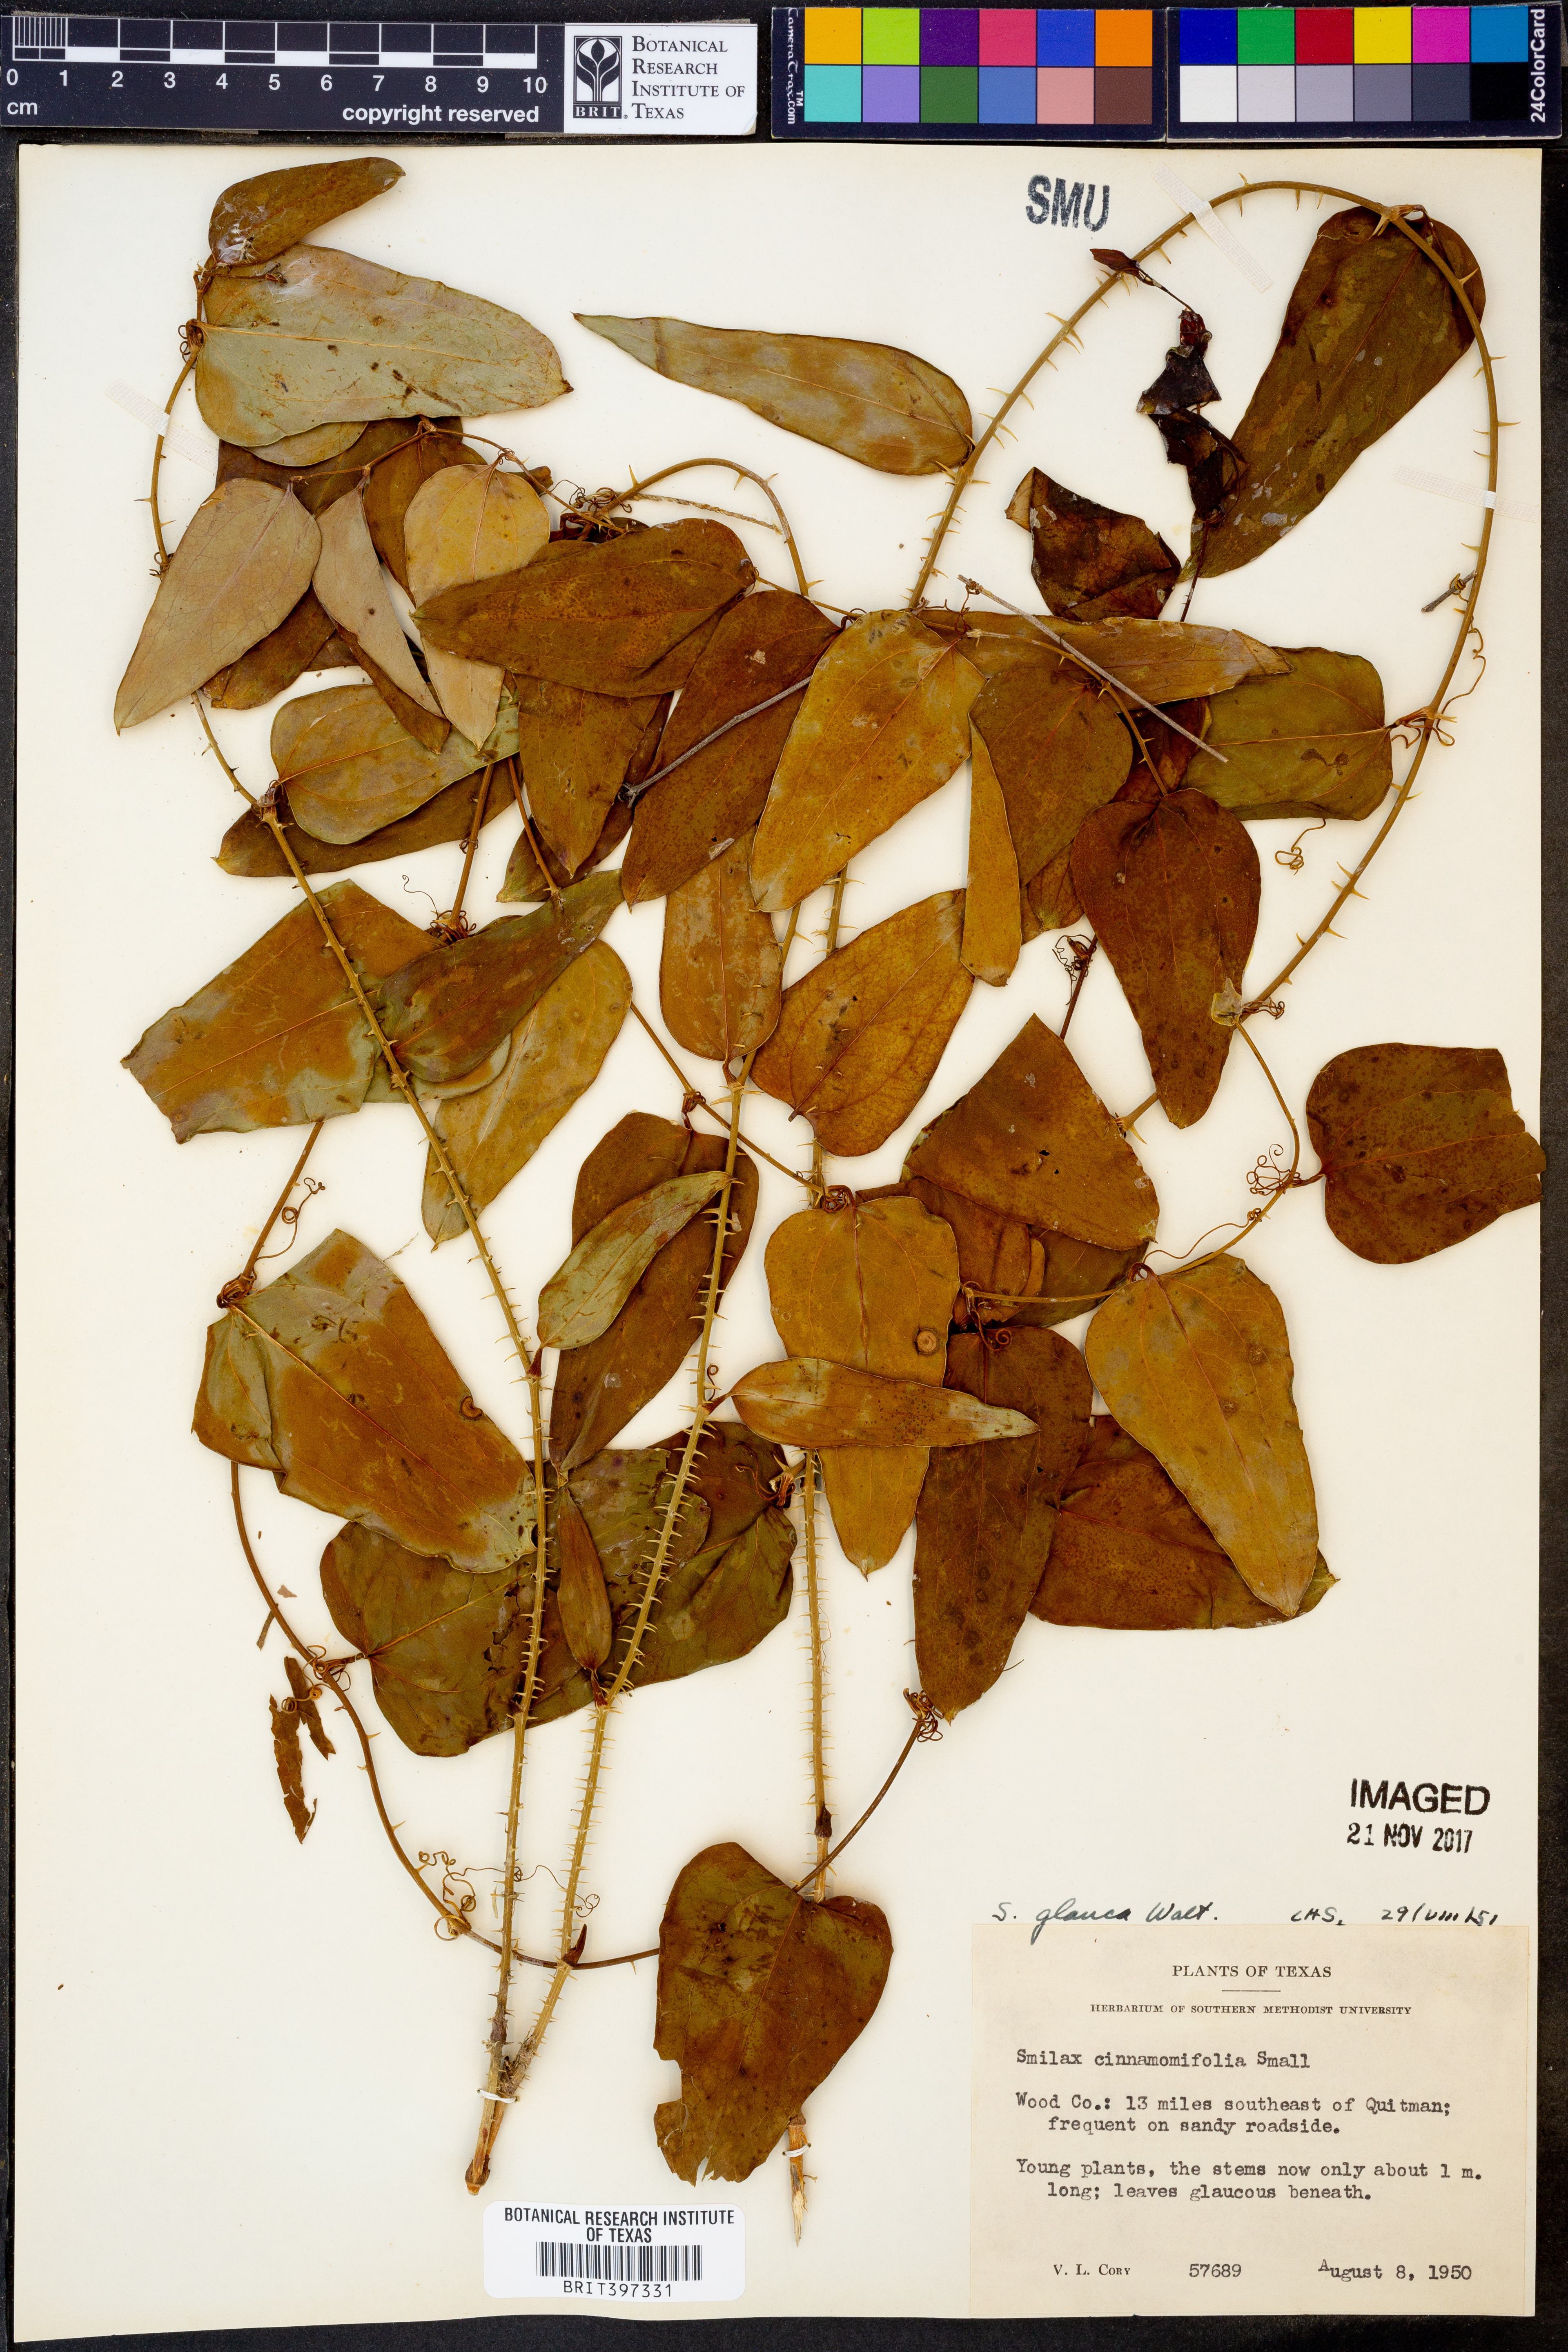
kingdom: Plantae
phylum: Tracheophyta
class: Liliopsida
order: Liliales
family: Smilacaceae
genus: Smilax
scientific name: Smilax glauca
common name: Cat greenbrier
